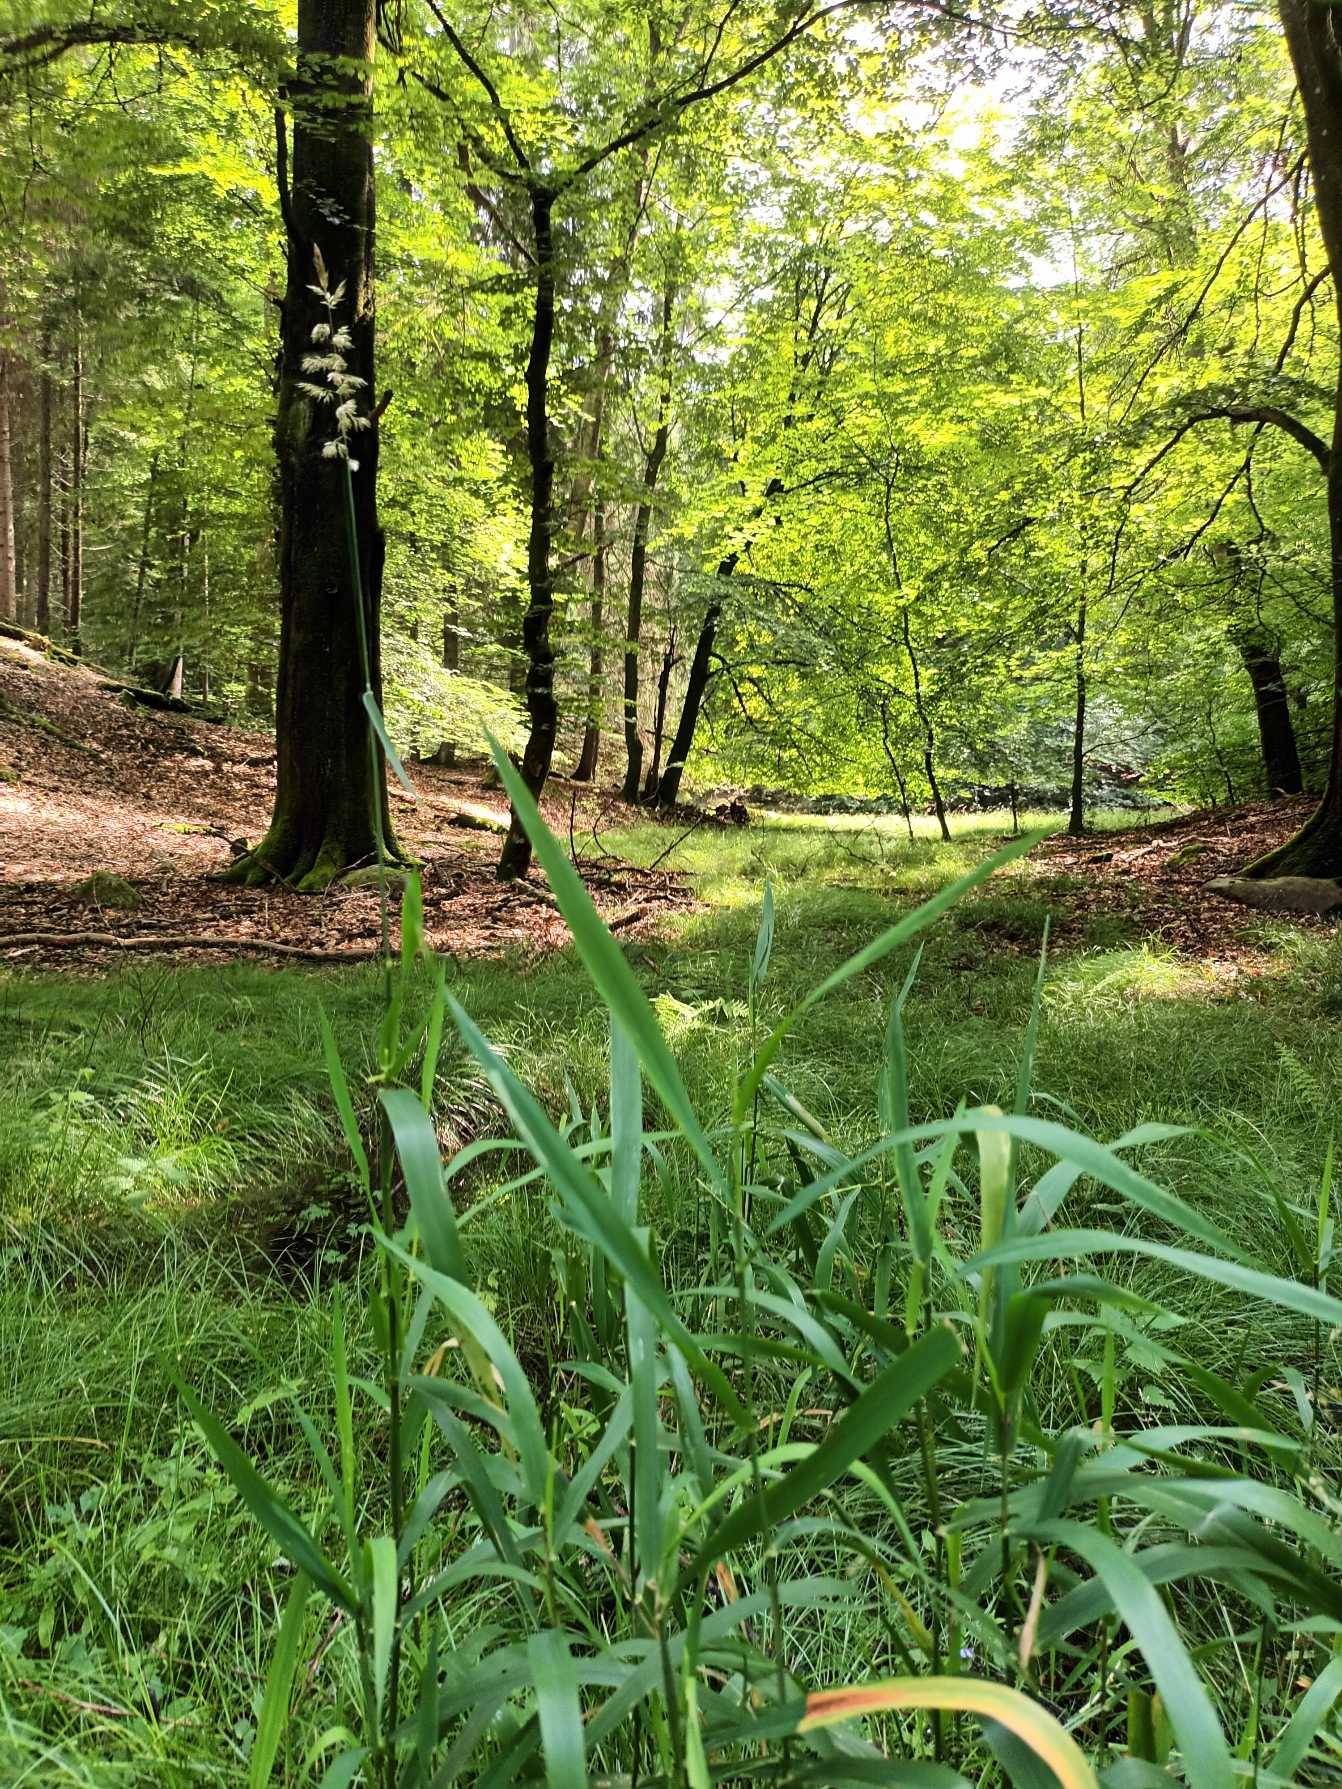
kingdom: Plantae
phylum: Tracheophyta
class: Liliopsida
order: Poales
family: Poaceae
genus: Phalaris
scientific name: Phalaris arundinacea
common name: Rørgræs
